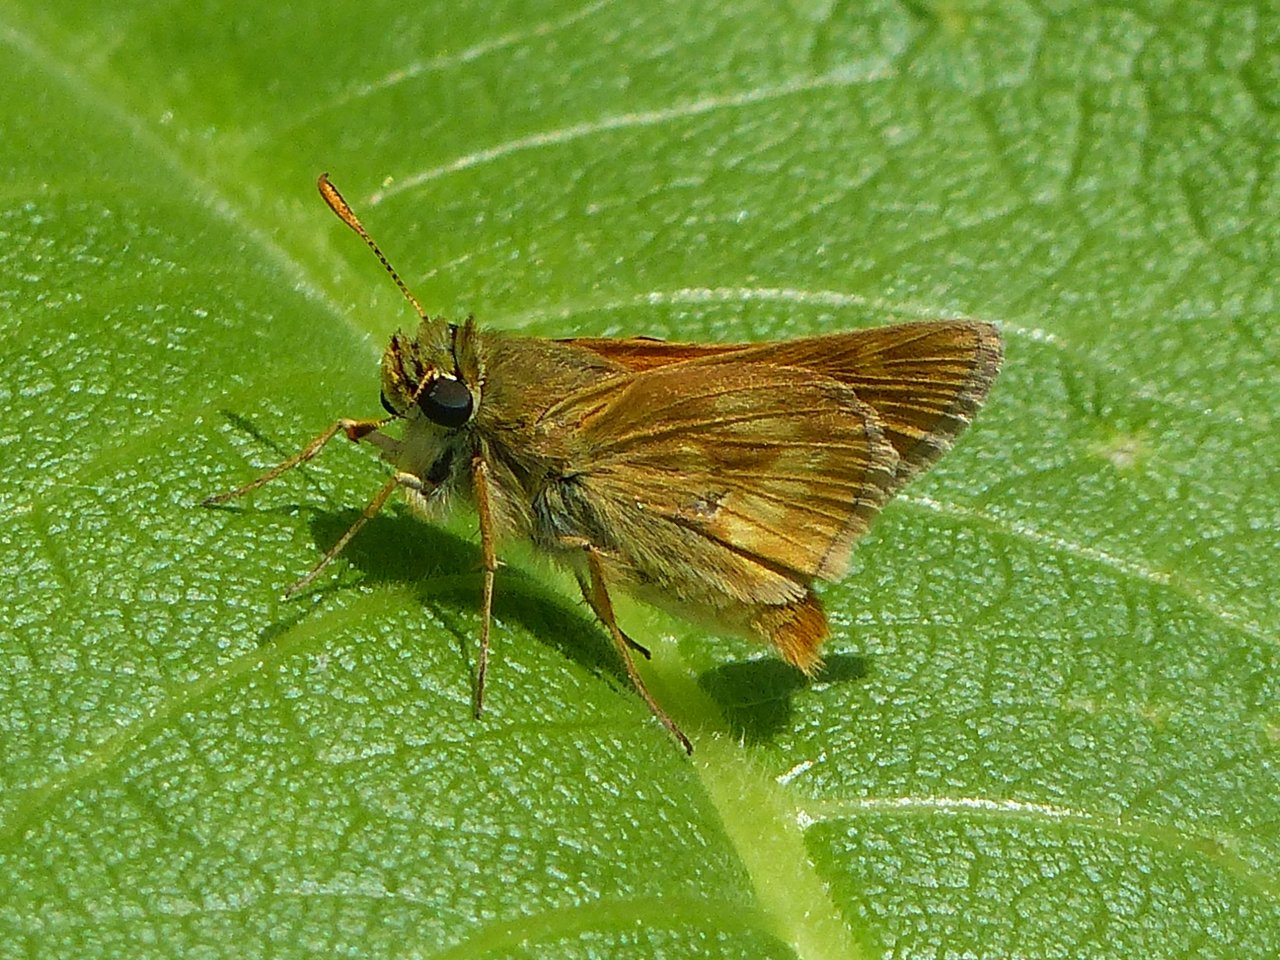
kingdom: Animalia
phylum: Arthropoda
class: Insecta
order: Lepidoptera
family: Hesperiidae
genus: Polites
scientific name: Polites
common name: Long Dash Skipper
